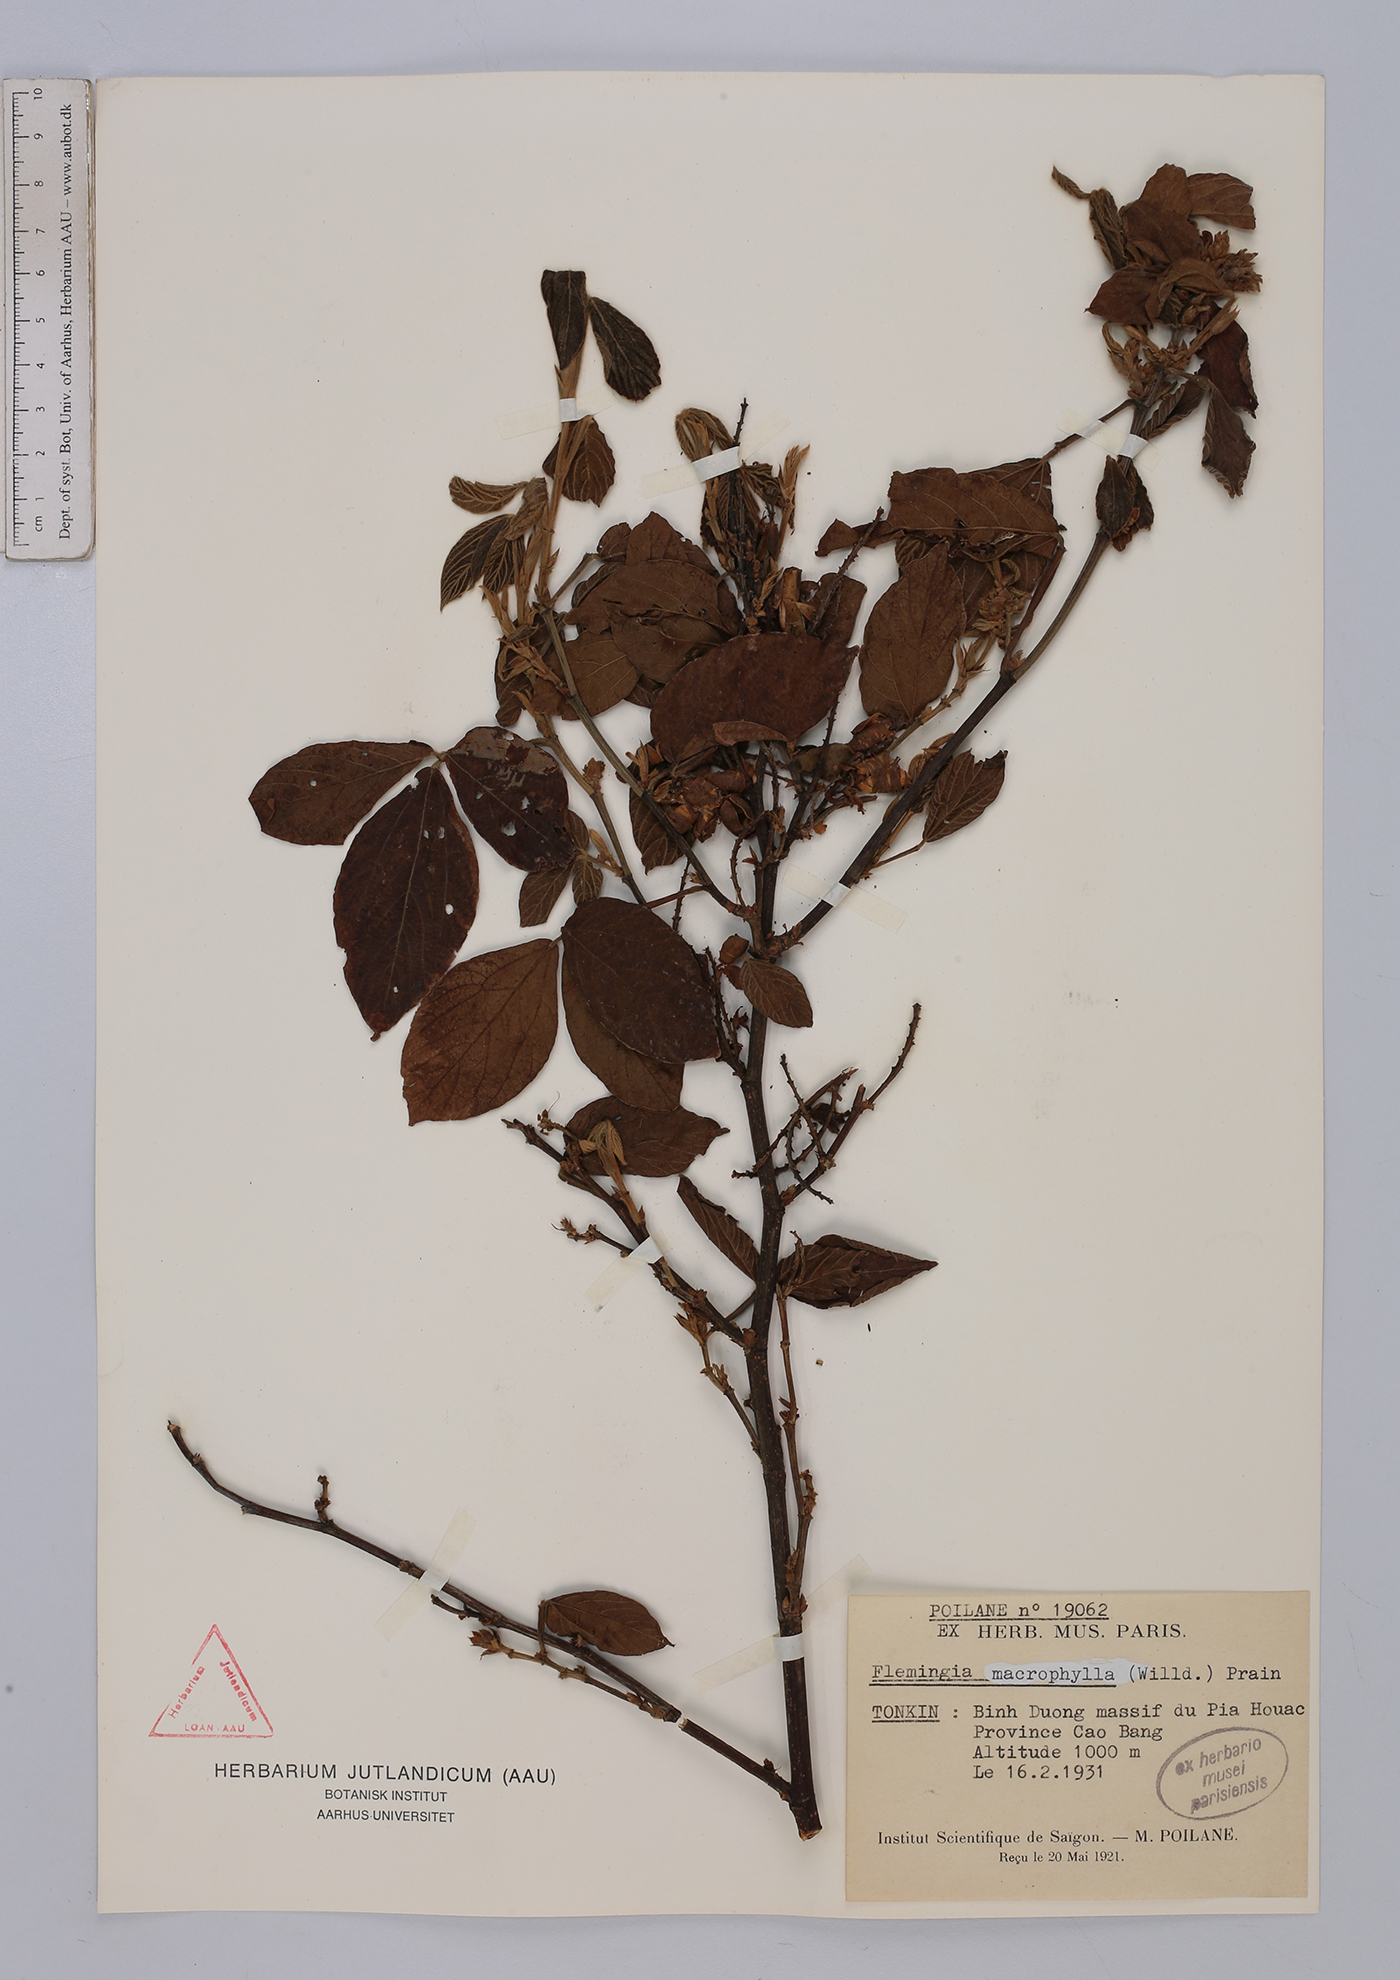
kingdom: Plantae
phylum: Tracheophyta
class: Magnoliopsida
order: Fabales
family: Fabaceae
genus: Flemingia
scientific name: Flemingia macrophylla
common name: Flemingia
